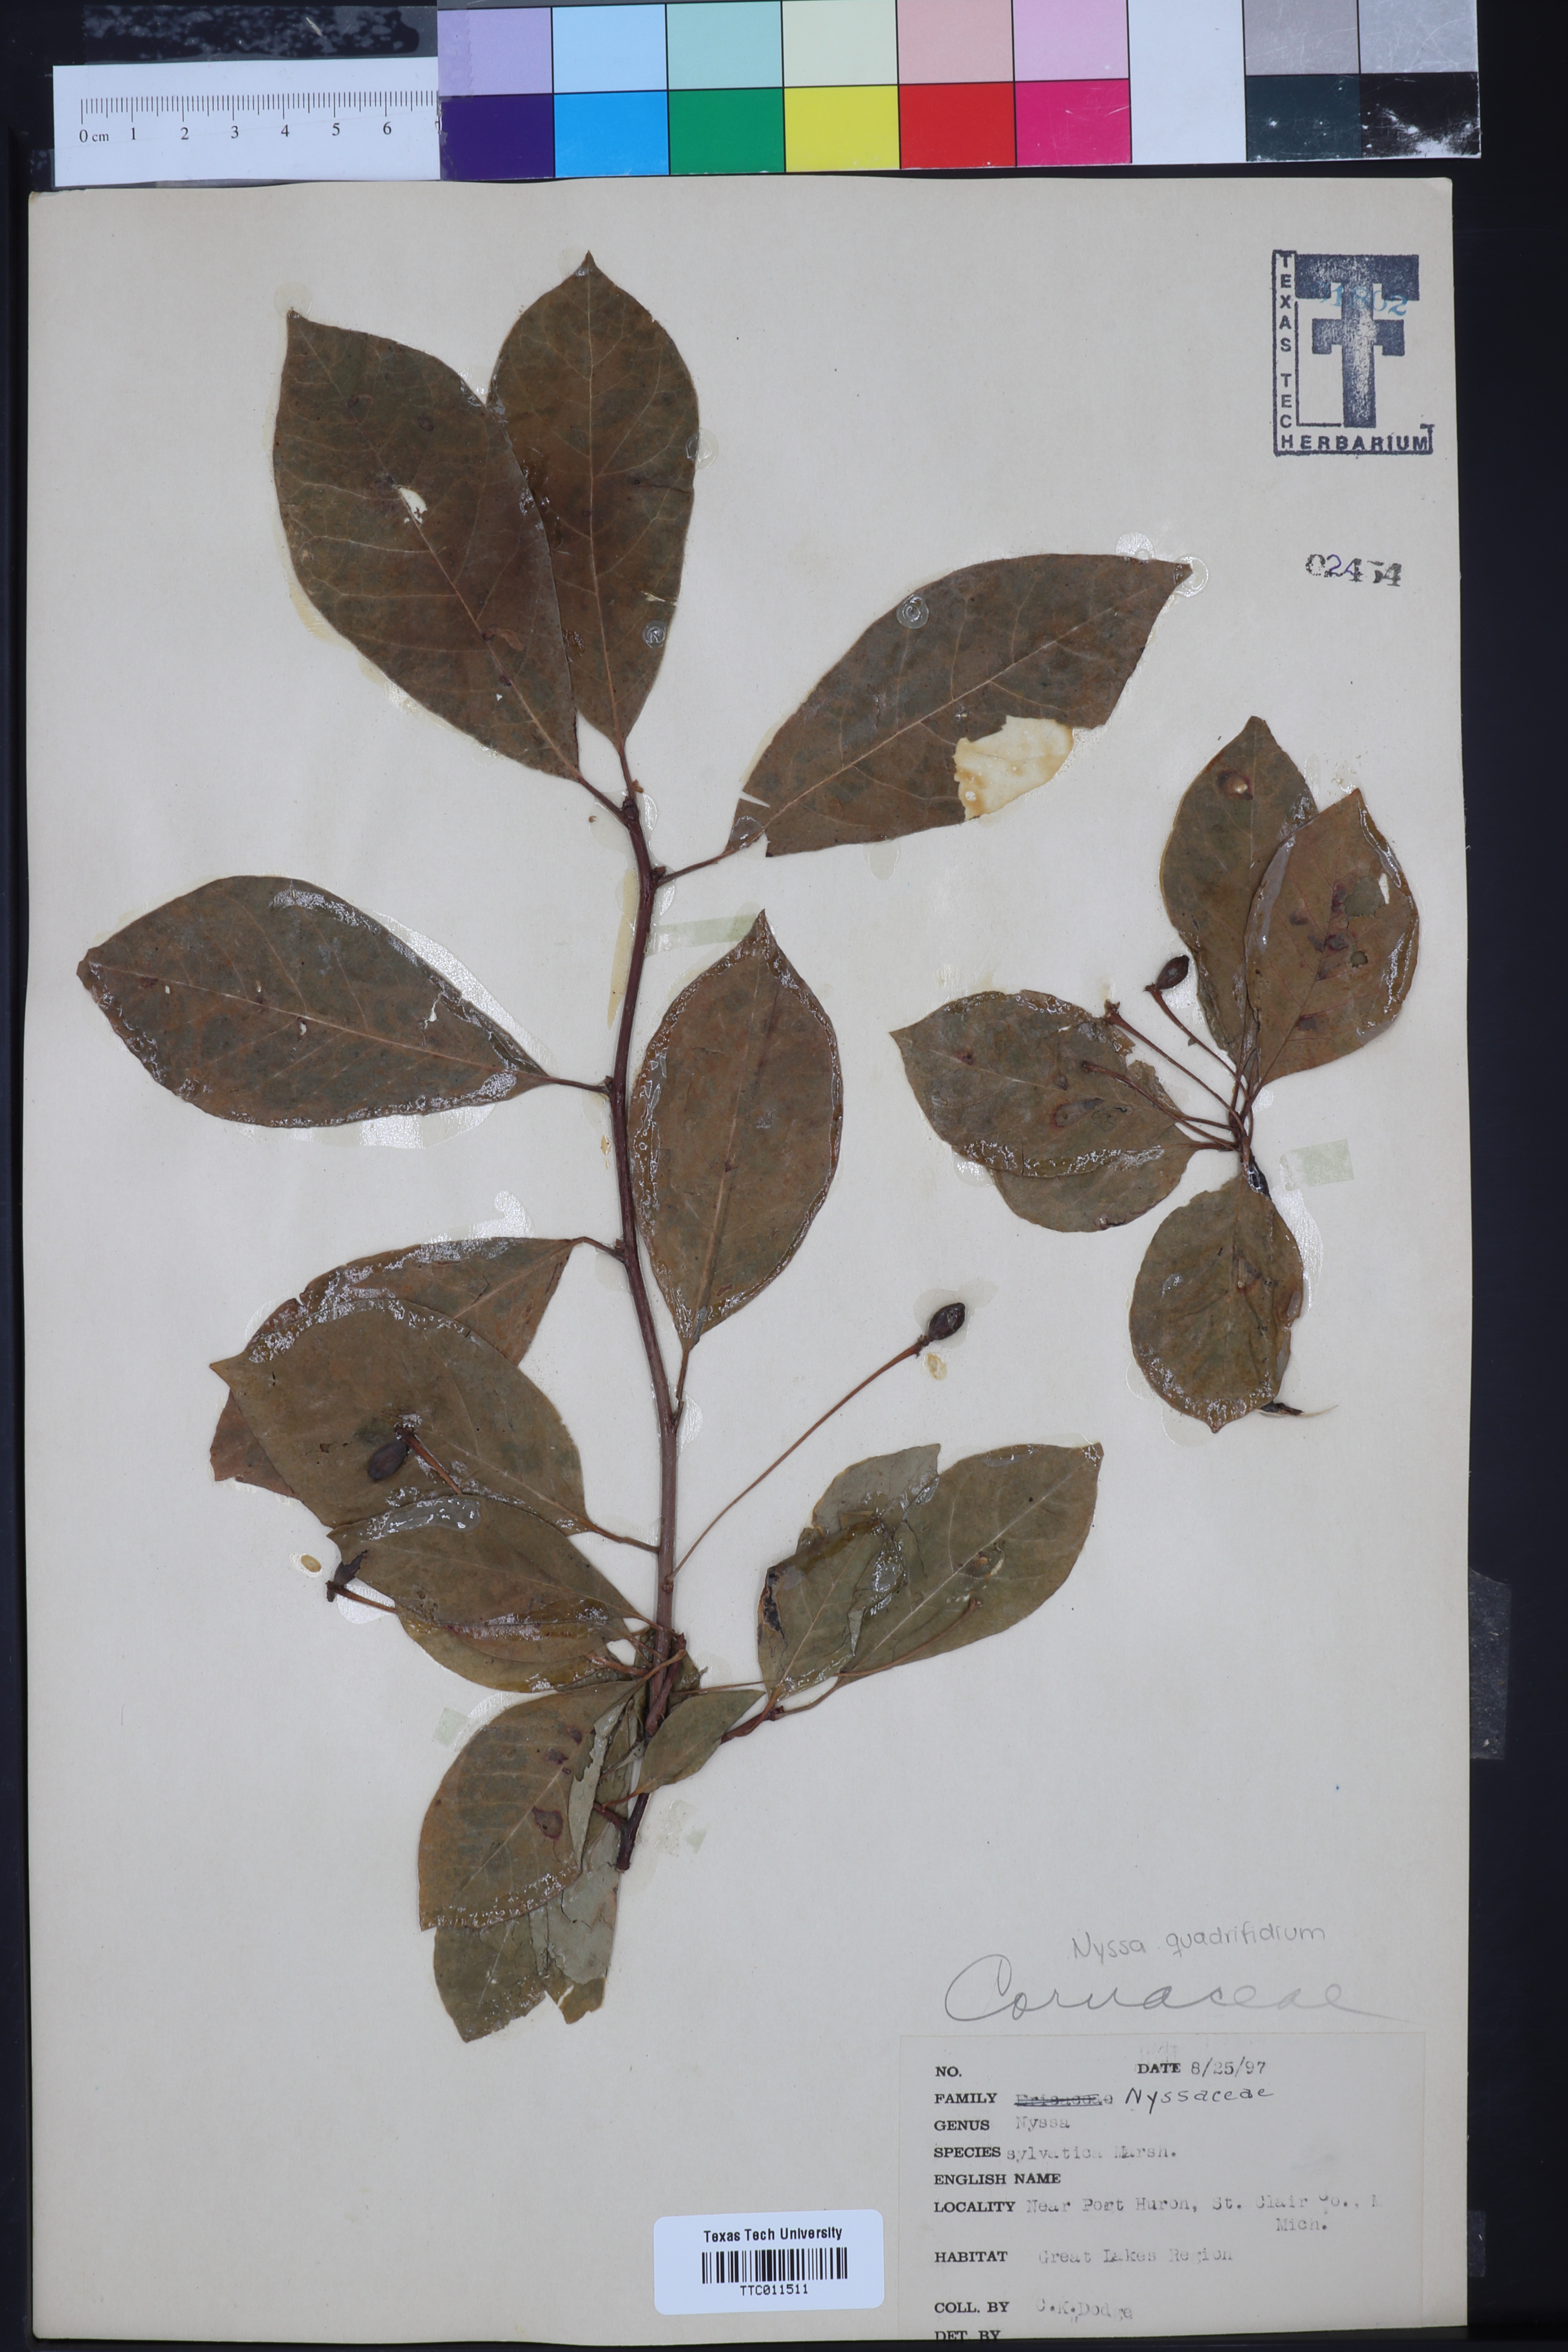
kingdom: Plantae
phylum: Tracheophyta
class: Magnoliopsida
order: Cornales
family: Nyssaceae
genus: Nyssa
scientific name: Nyssa sylvatica
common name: Black tupelo
